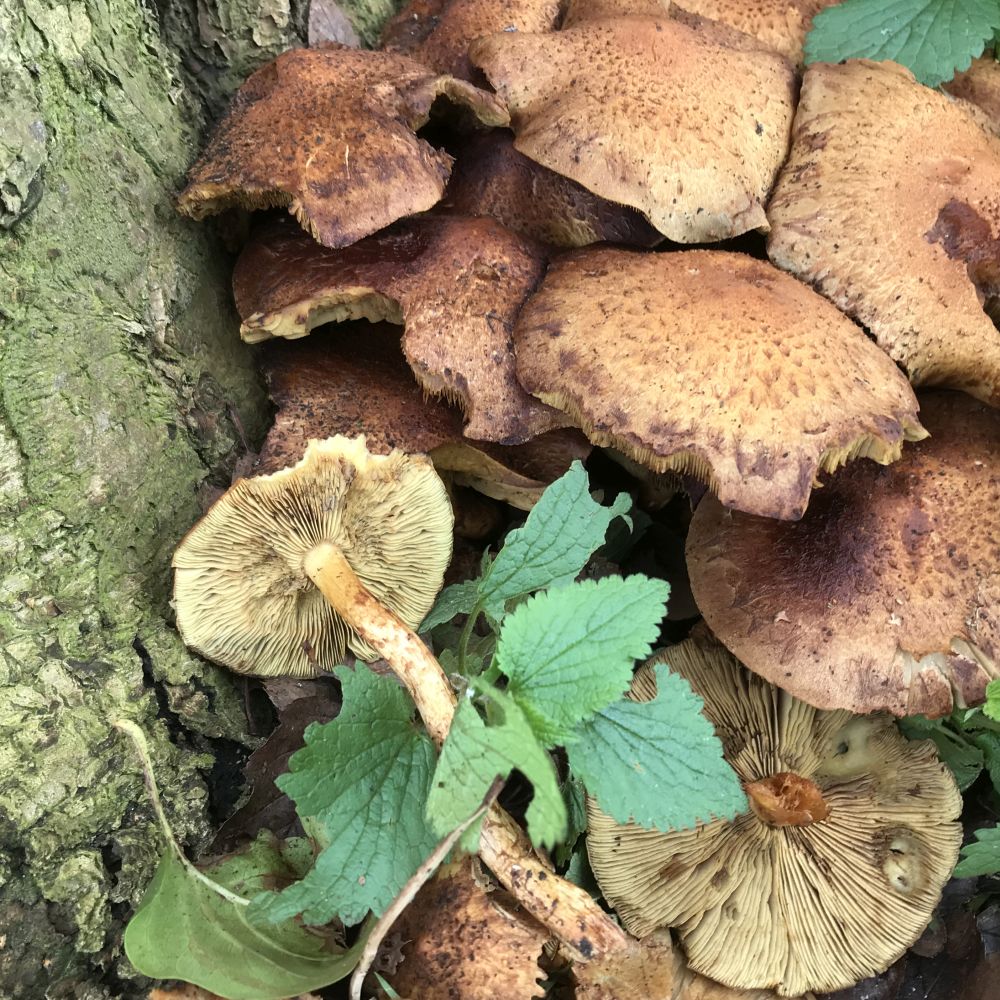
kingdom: Fungi
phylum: Basidiomycota
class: Agaricomycetes
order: Agaricales
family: Strophariaceae
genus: Pholiota
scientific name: Pholiota squarrosa
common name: krumskællet skælhat
